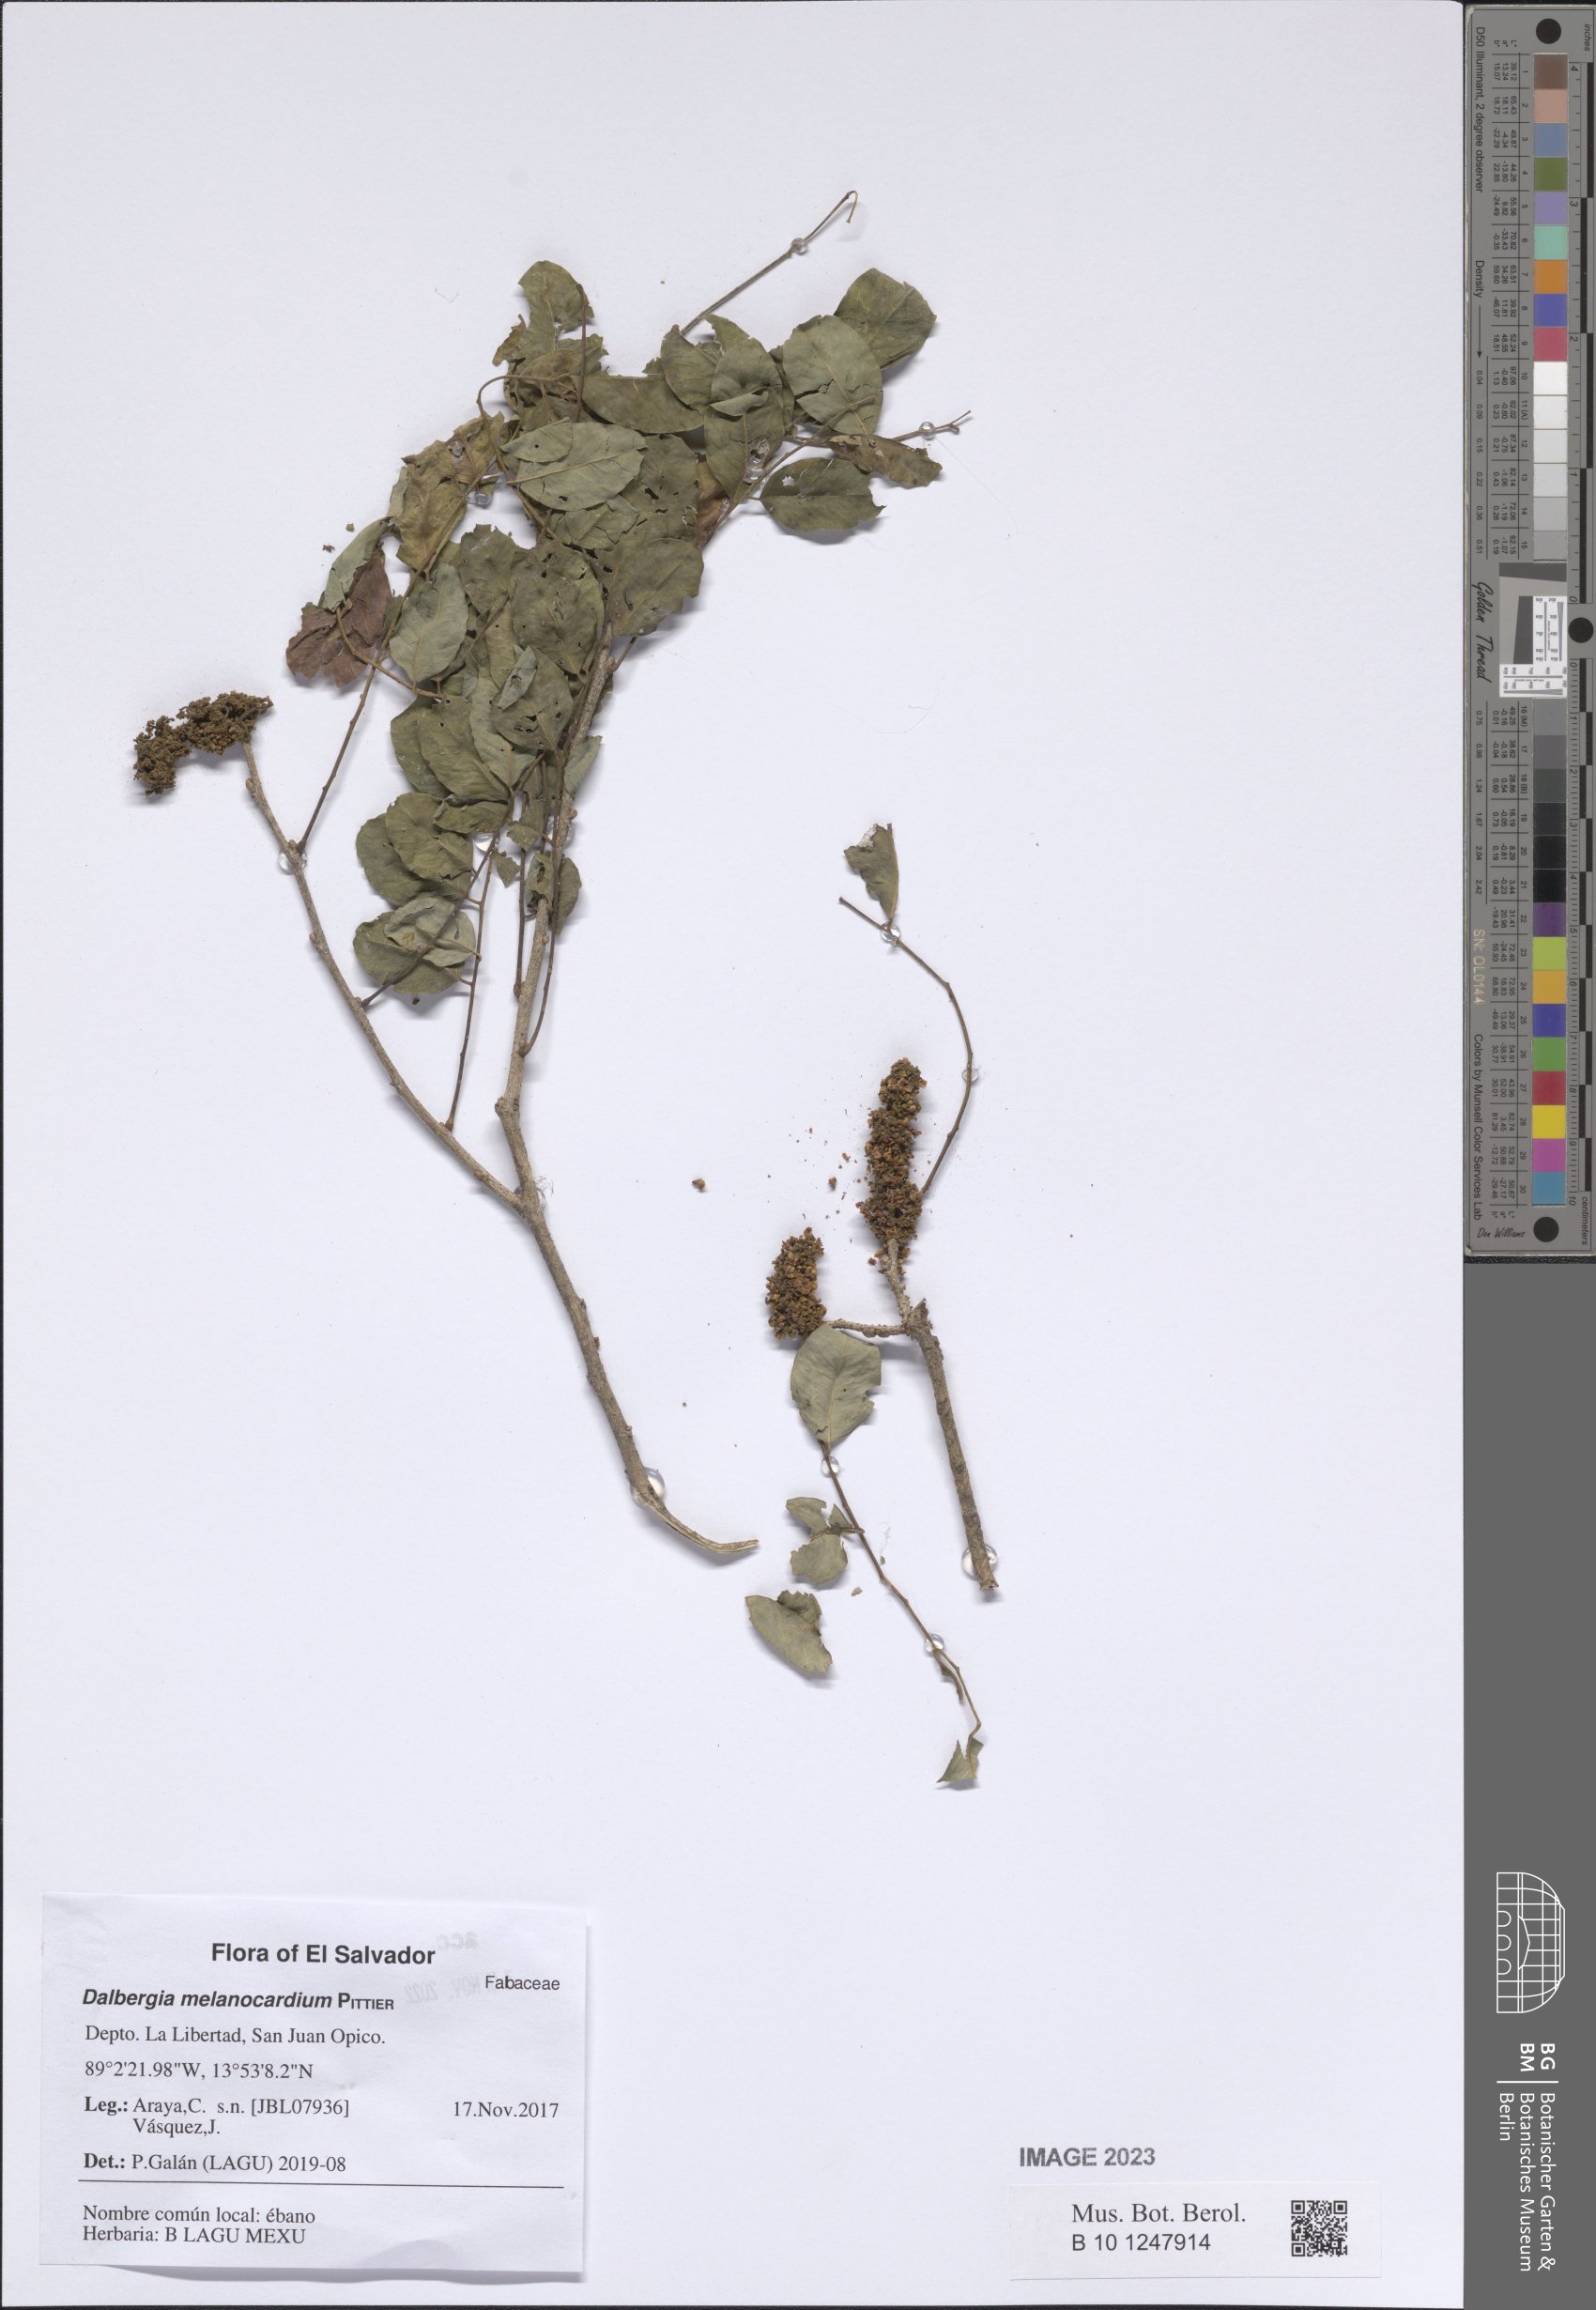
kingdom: Plantae
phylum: Tracheophyta
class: Magnoliopsida
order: Fabales
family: Fabaceae
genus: Dalbergia
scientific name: Dalbergia melanocardium
